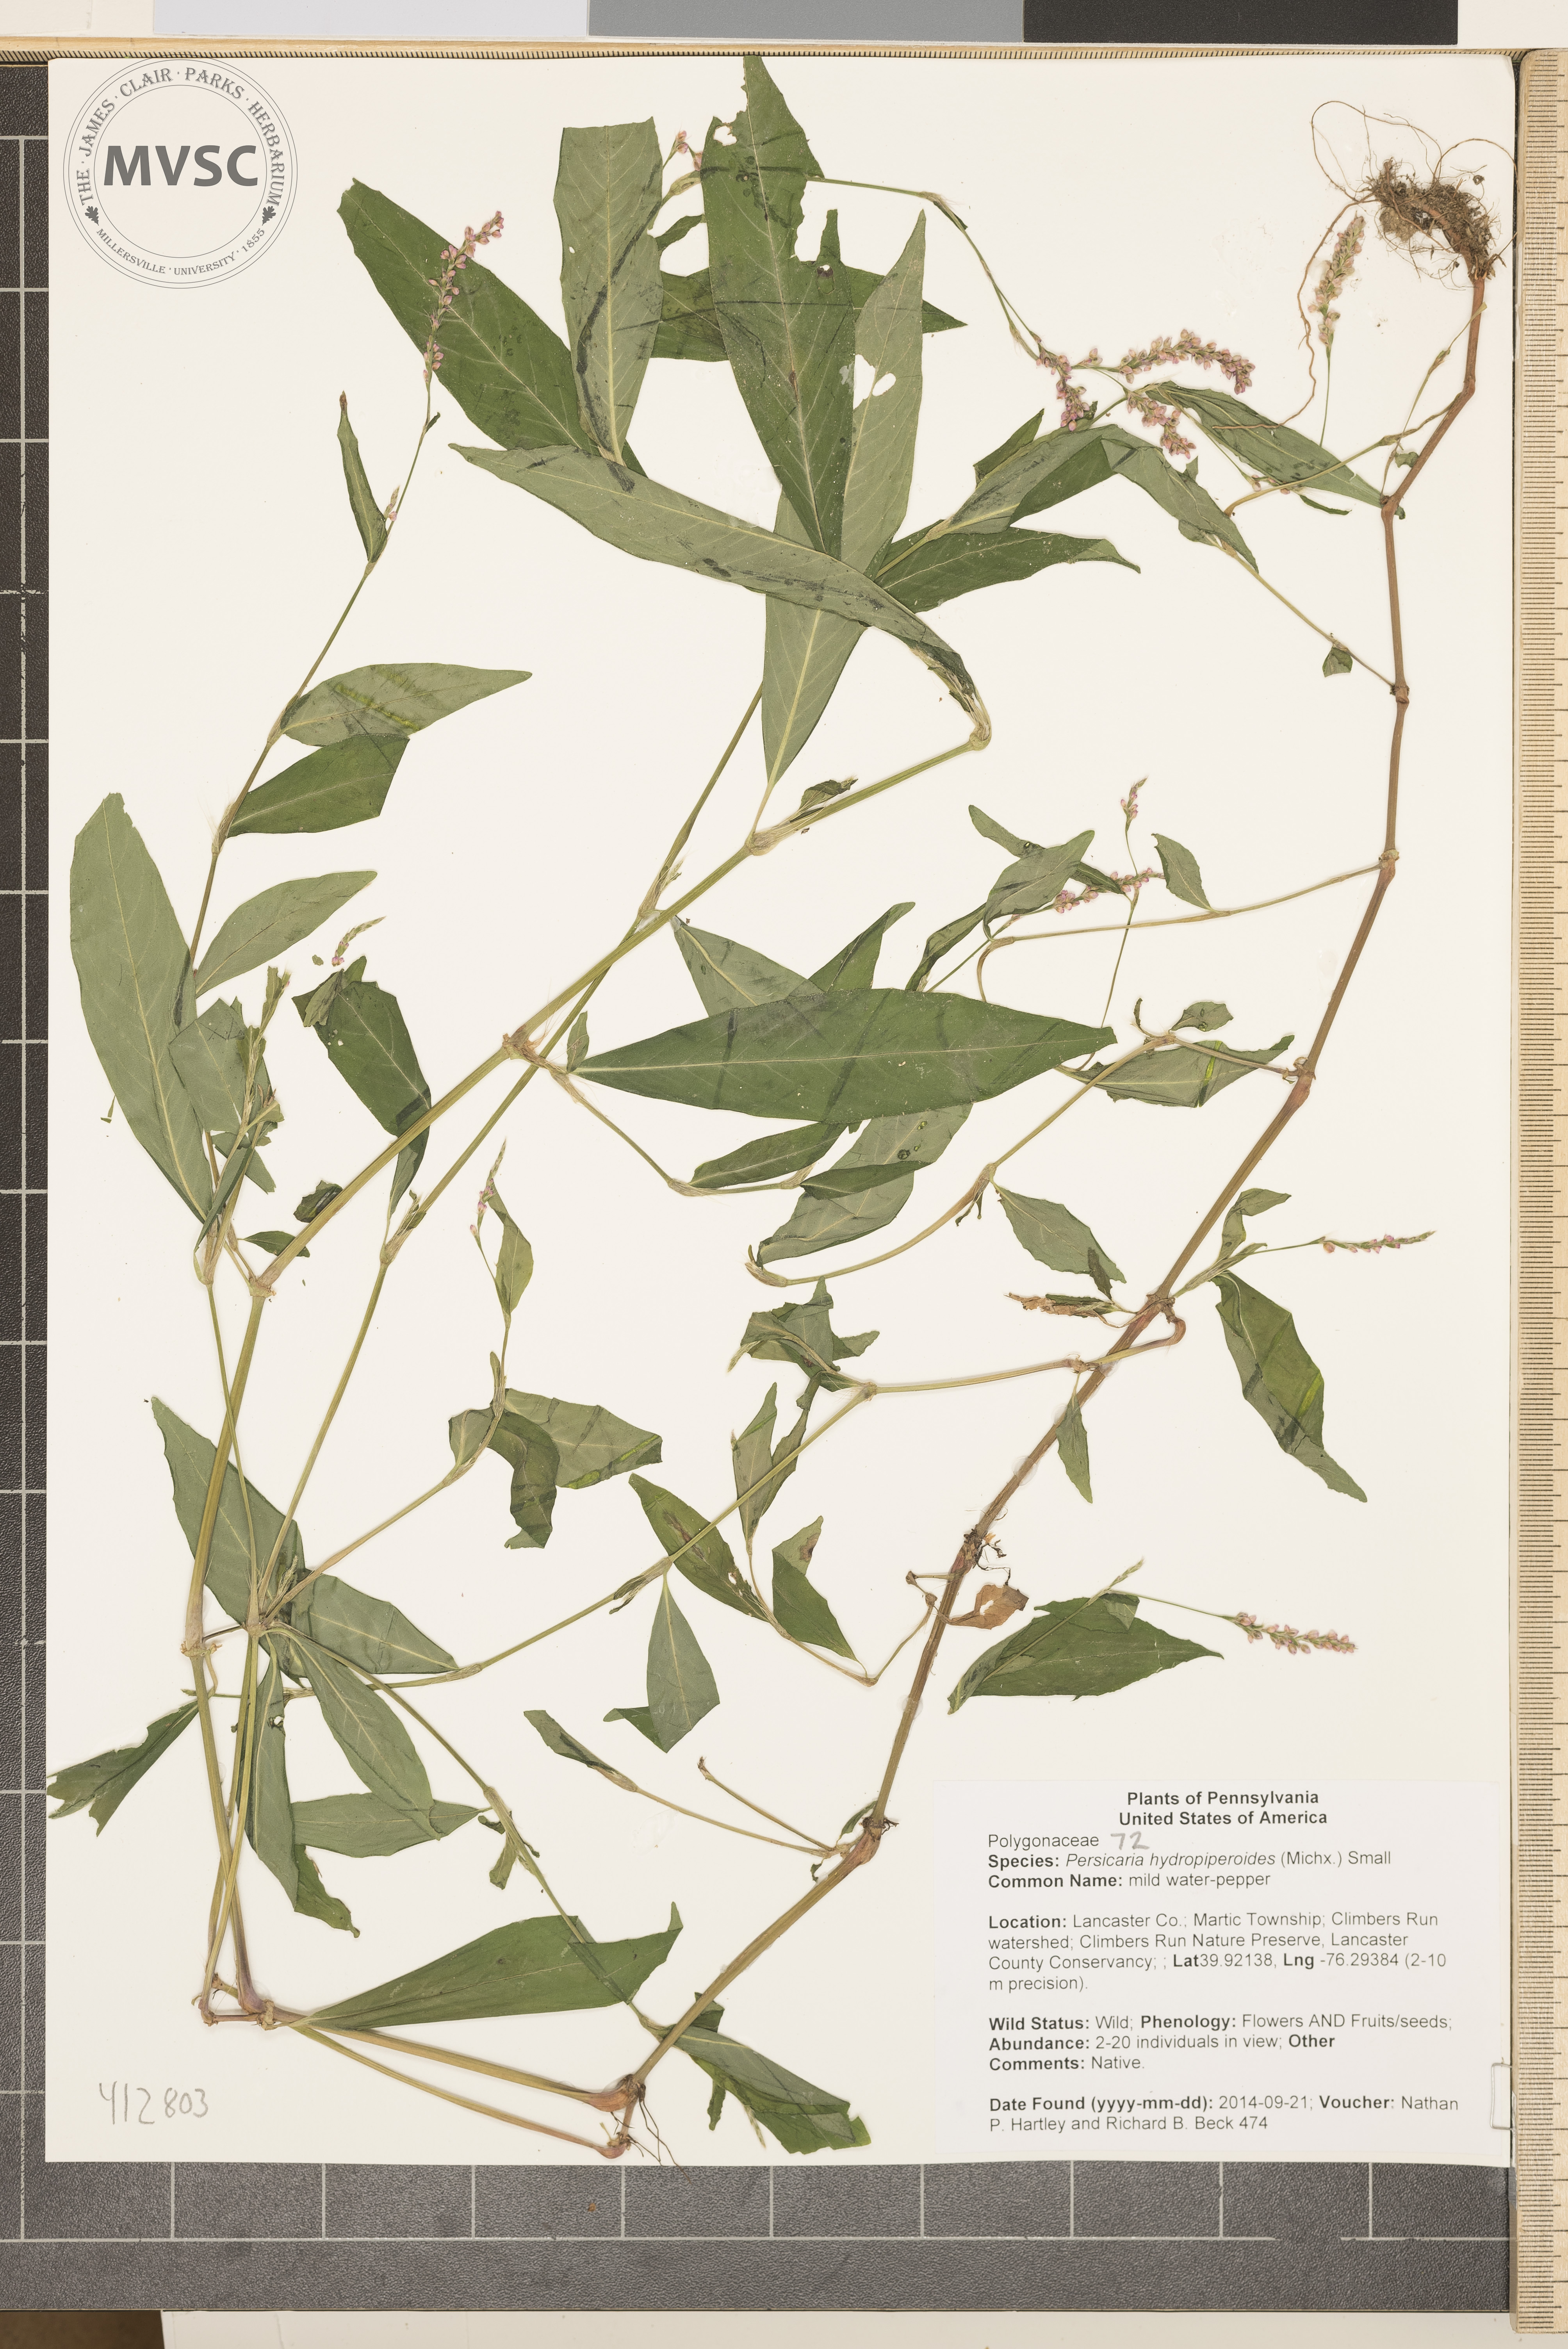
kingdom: Plantae
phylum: Tracheophyta
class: Magnoliopsida
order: Caryophyllales
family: Polygonaceae
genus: Persicaria
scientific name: Persicaria hydropiperoides
